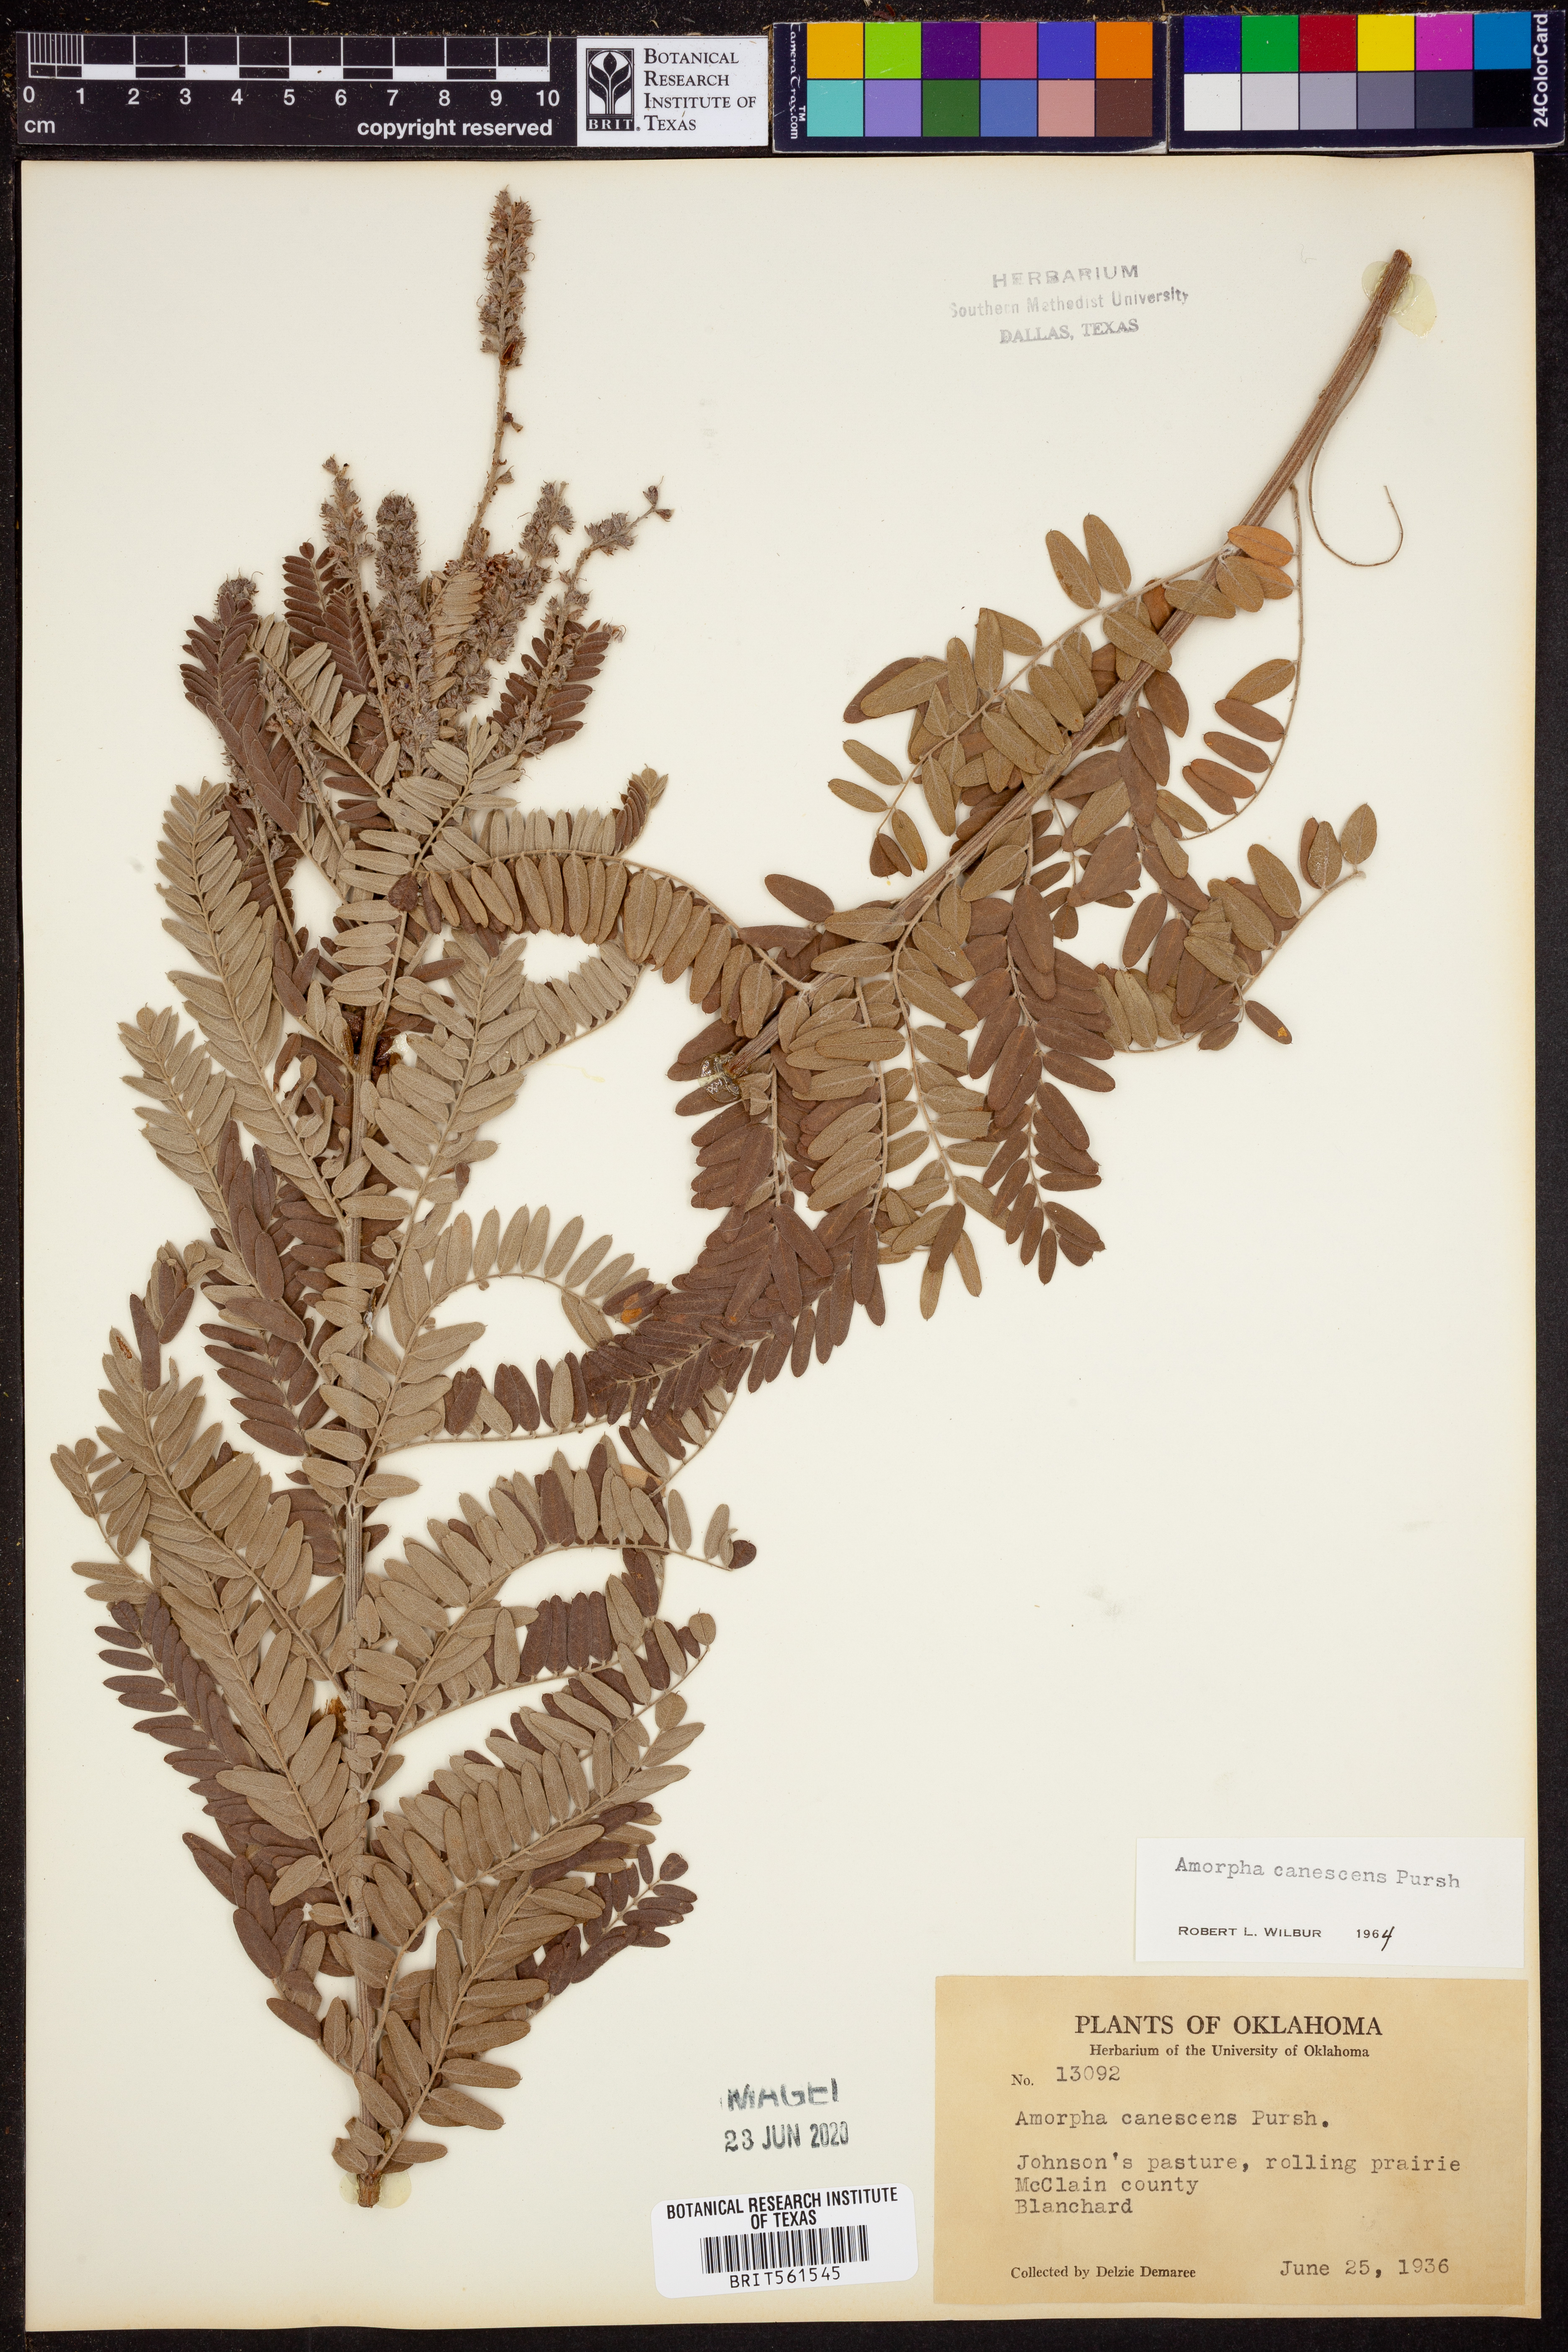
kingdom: Plantae
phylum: Tracheophyta
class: Magnoliopsida
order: Fabales
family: Fabaceae
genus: Amorpha
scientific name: Amorpha canescens
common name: Leadplant
